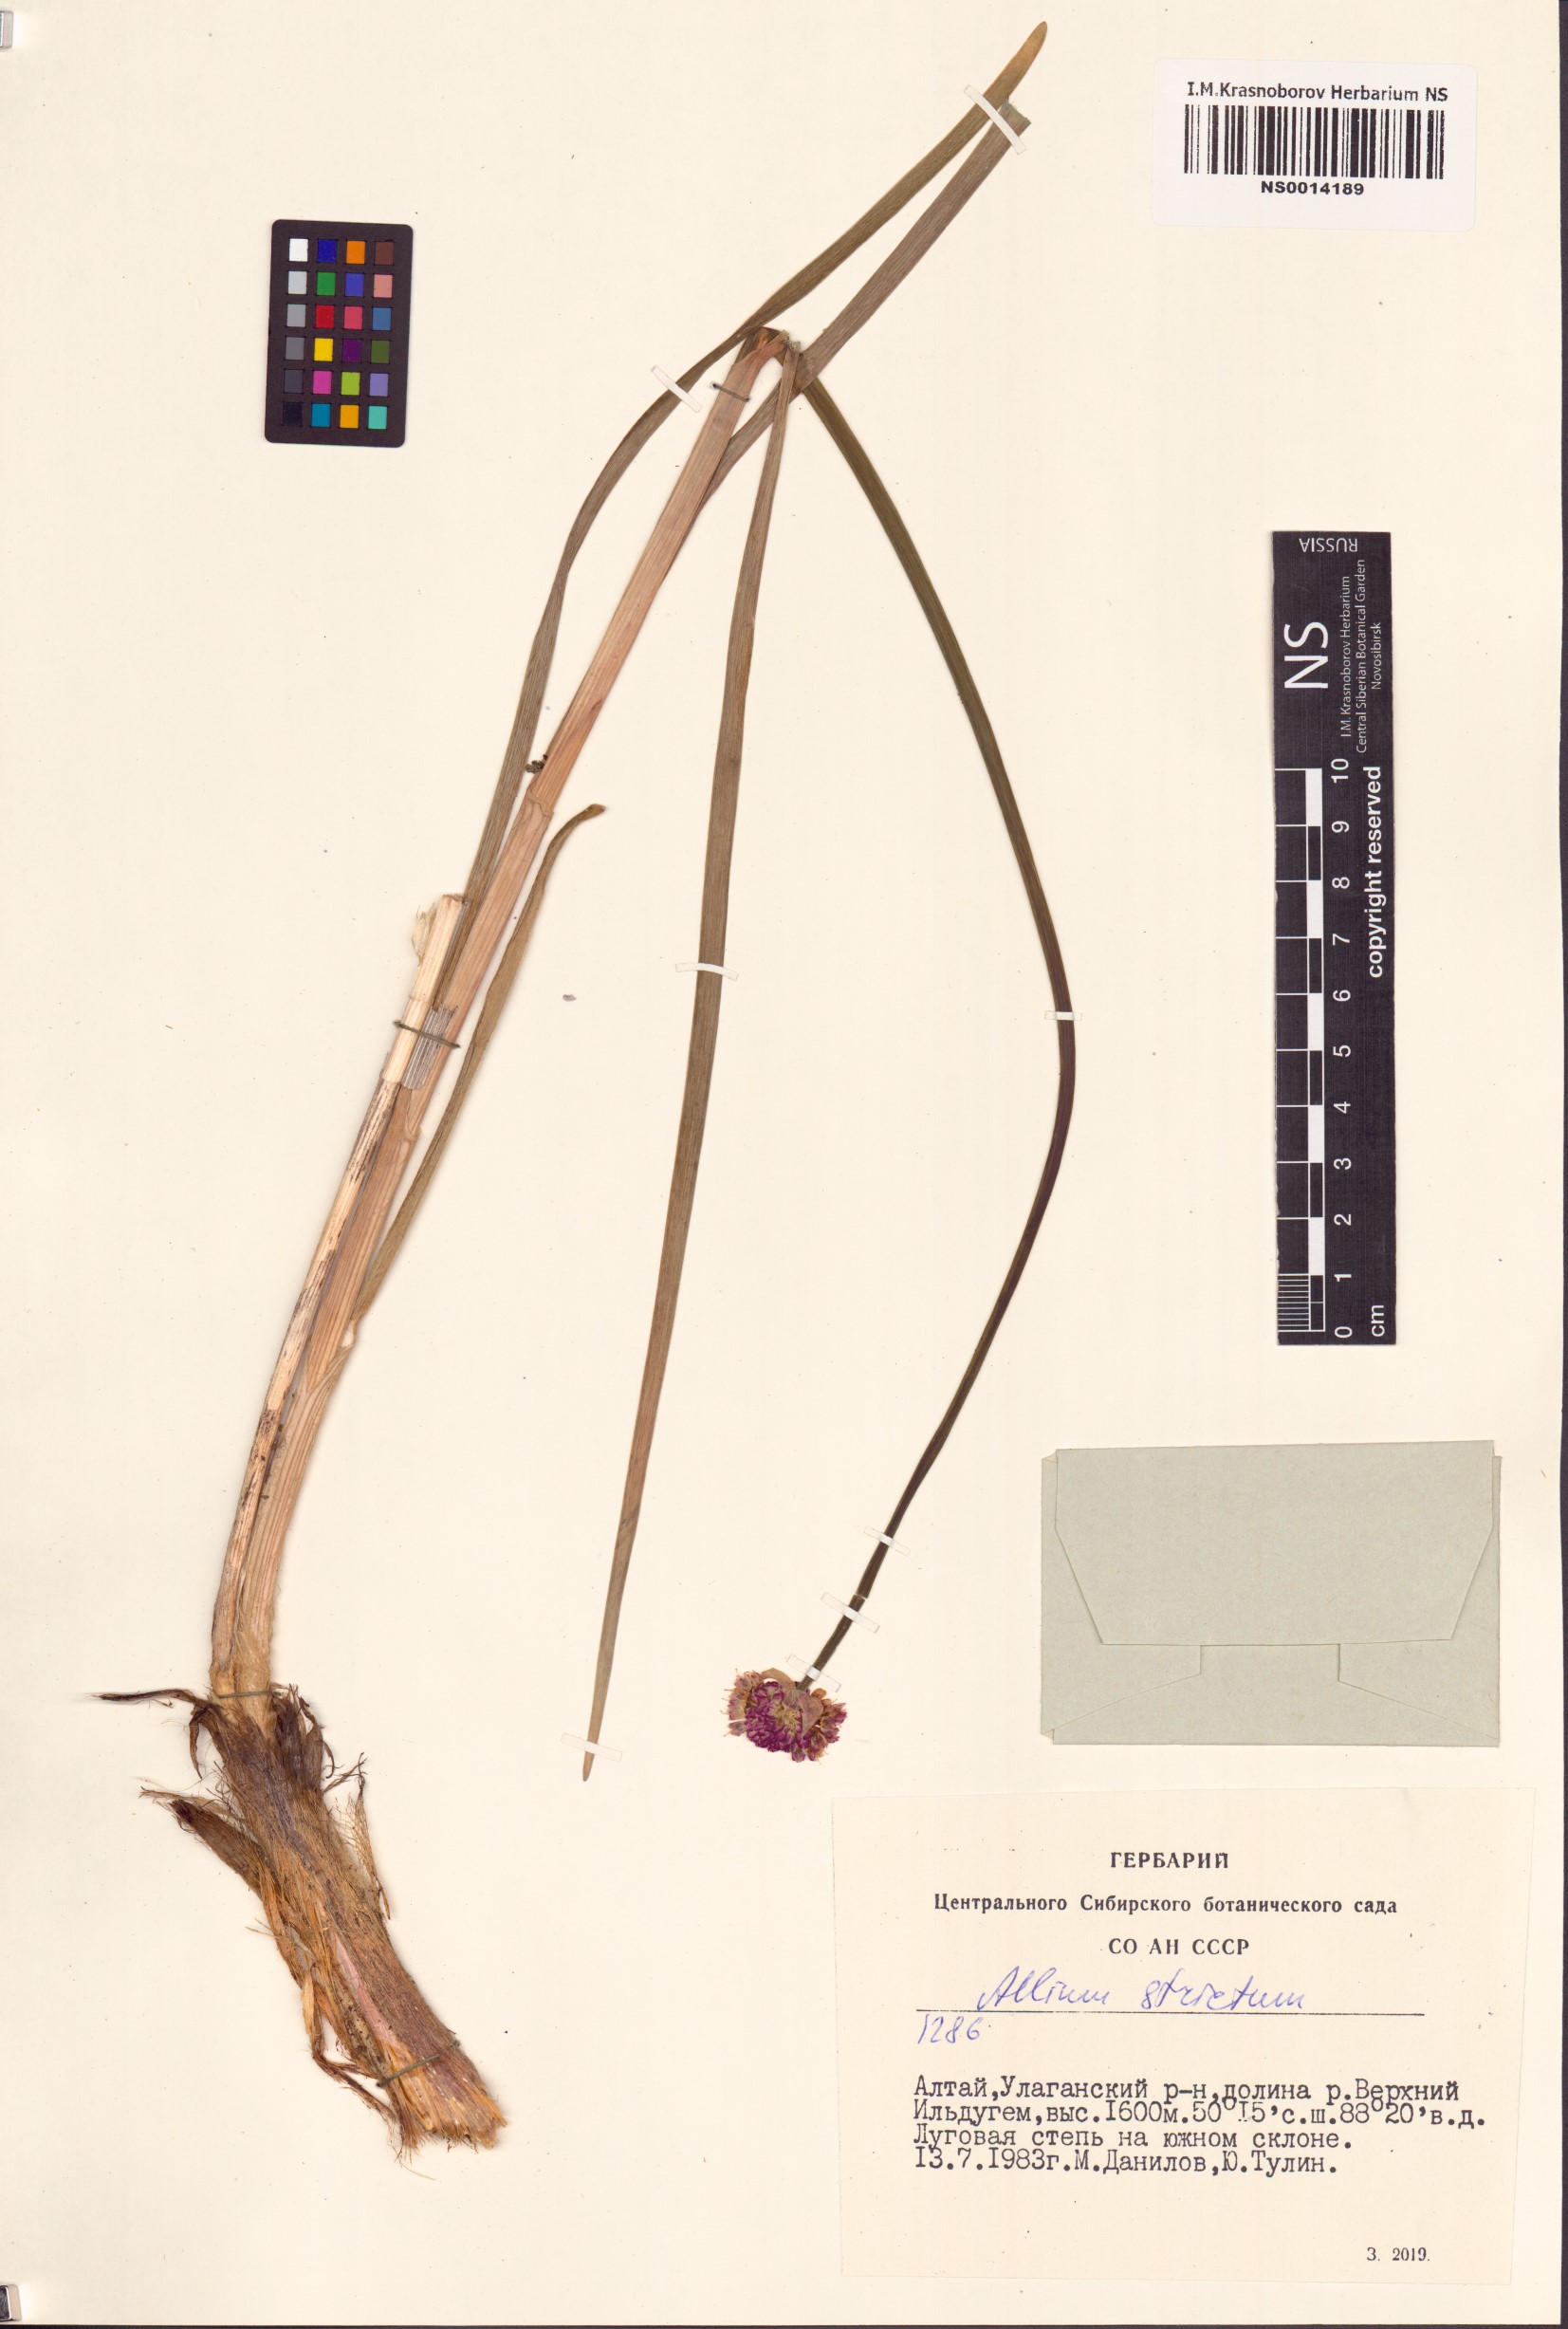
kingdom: Plantae
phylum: Tracheophyta
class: Liliopsida
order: Asparagales
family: Amaryllidaceae
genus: Allium
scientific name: Allium strictum
